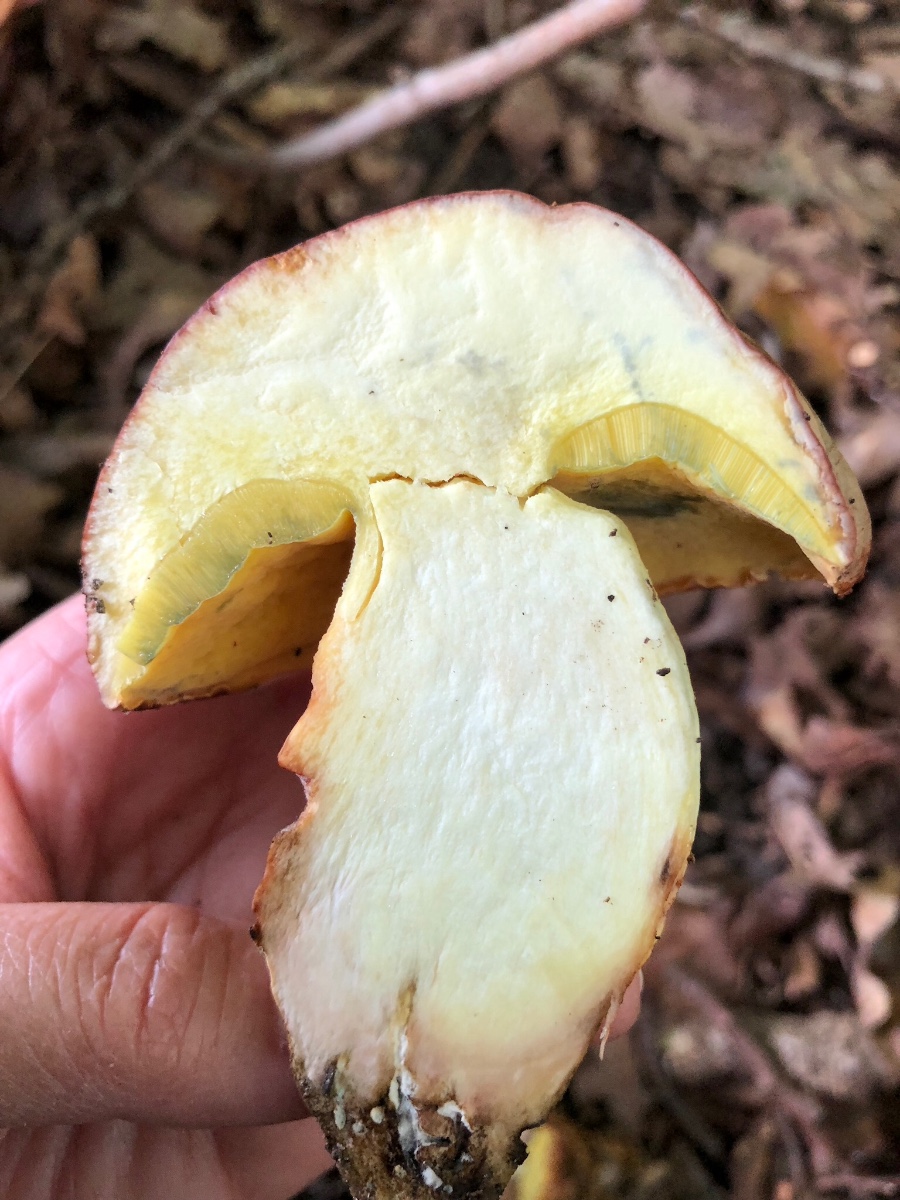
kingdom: Fungi
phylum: Basidiomycota
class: Agaricomycetes
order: Boletales
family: Boletaceae
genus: Butyriboletus
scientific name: Butyriboletus appendiculatus
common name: tenstokket rørhat
